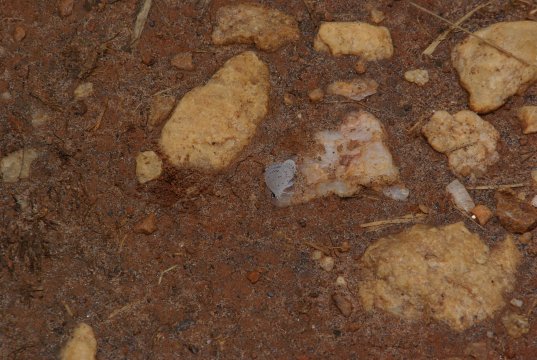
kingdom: Animalia
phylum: Arthropoda
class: Insecta
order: Lepidoptera
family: Lycaenidae
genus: Cyaniris
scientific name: Cyaniris neglecta
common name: Summer Azure
